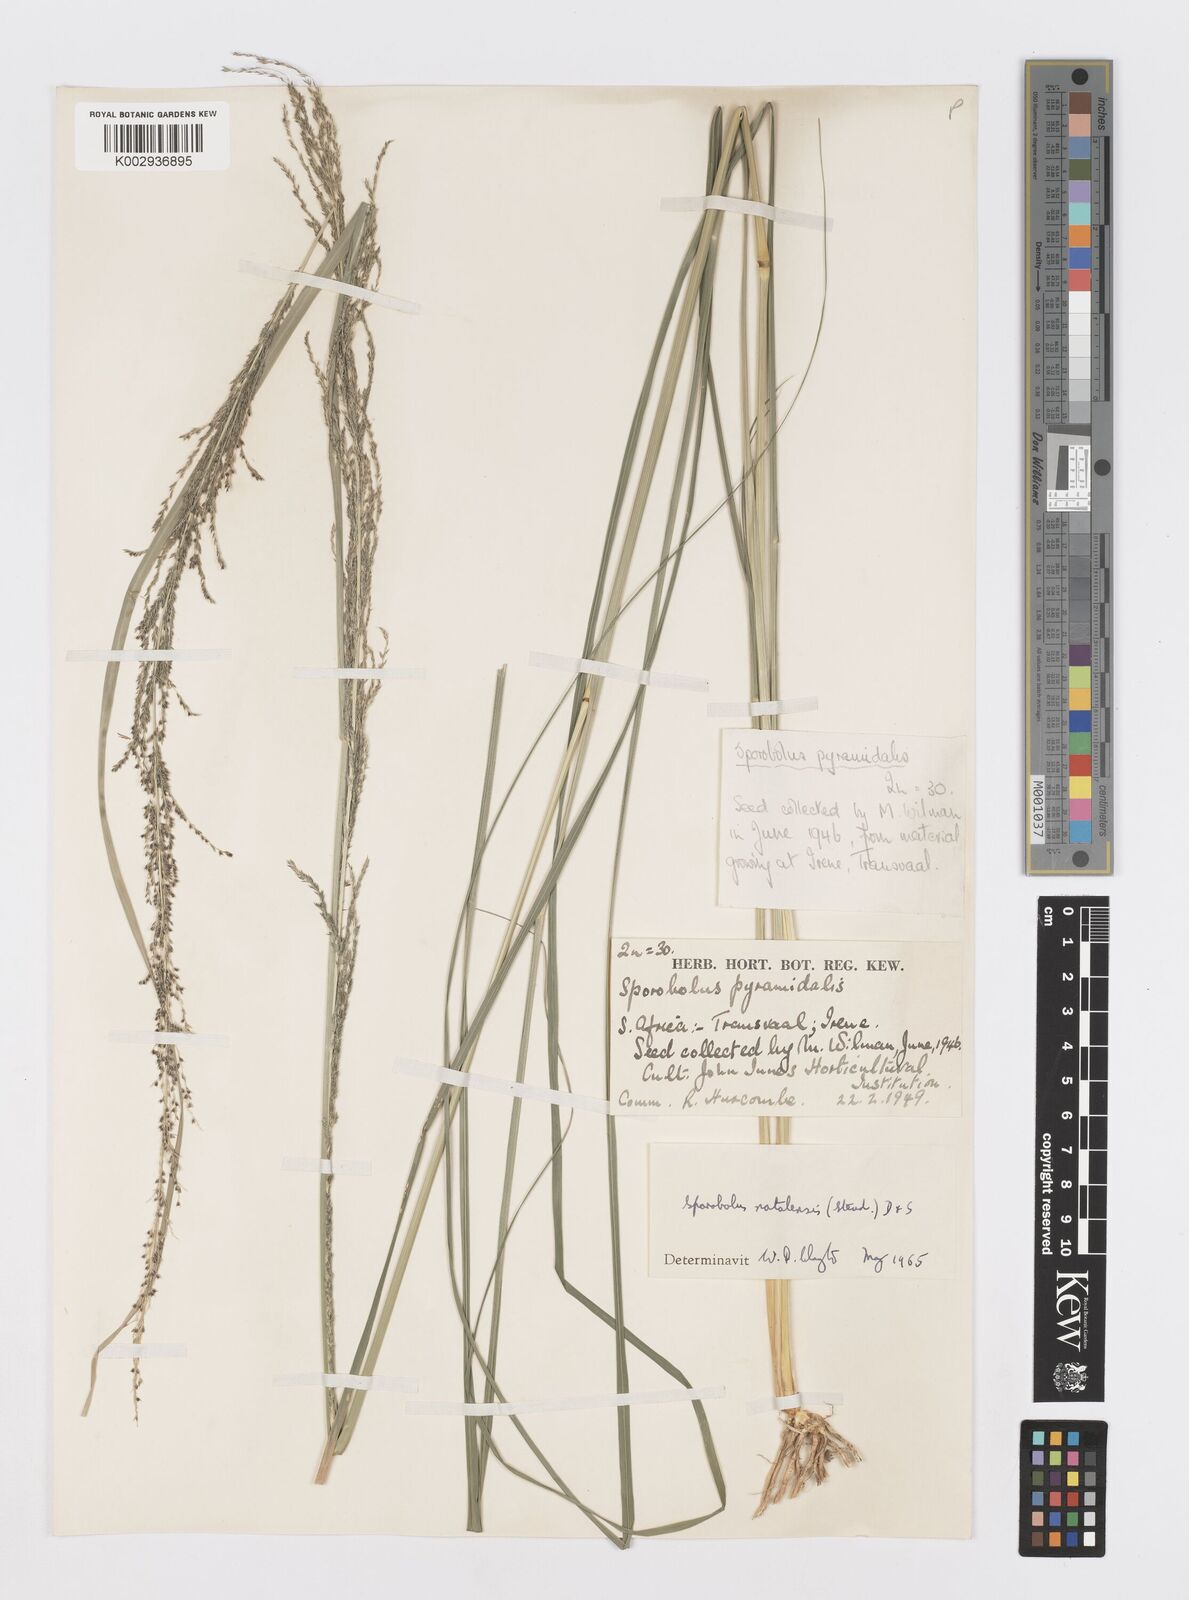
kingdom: Plantae
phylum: Tracheophyta
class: Liliopsida
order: Poales
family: Poaceae
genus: Sporobolus
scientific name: Sporobolus natalensis
